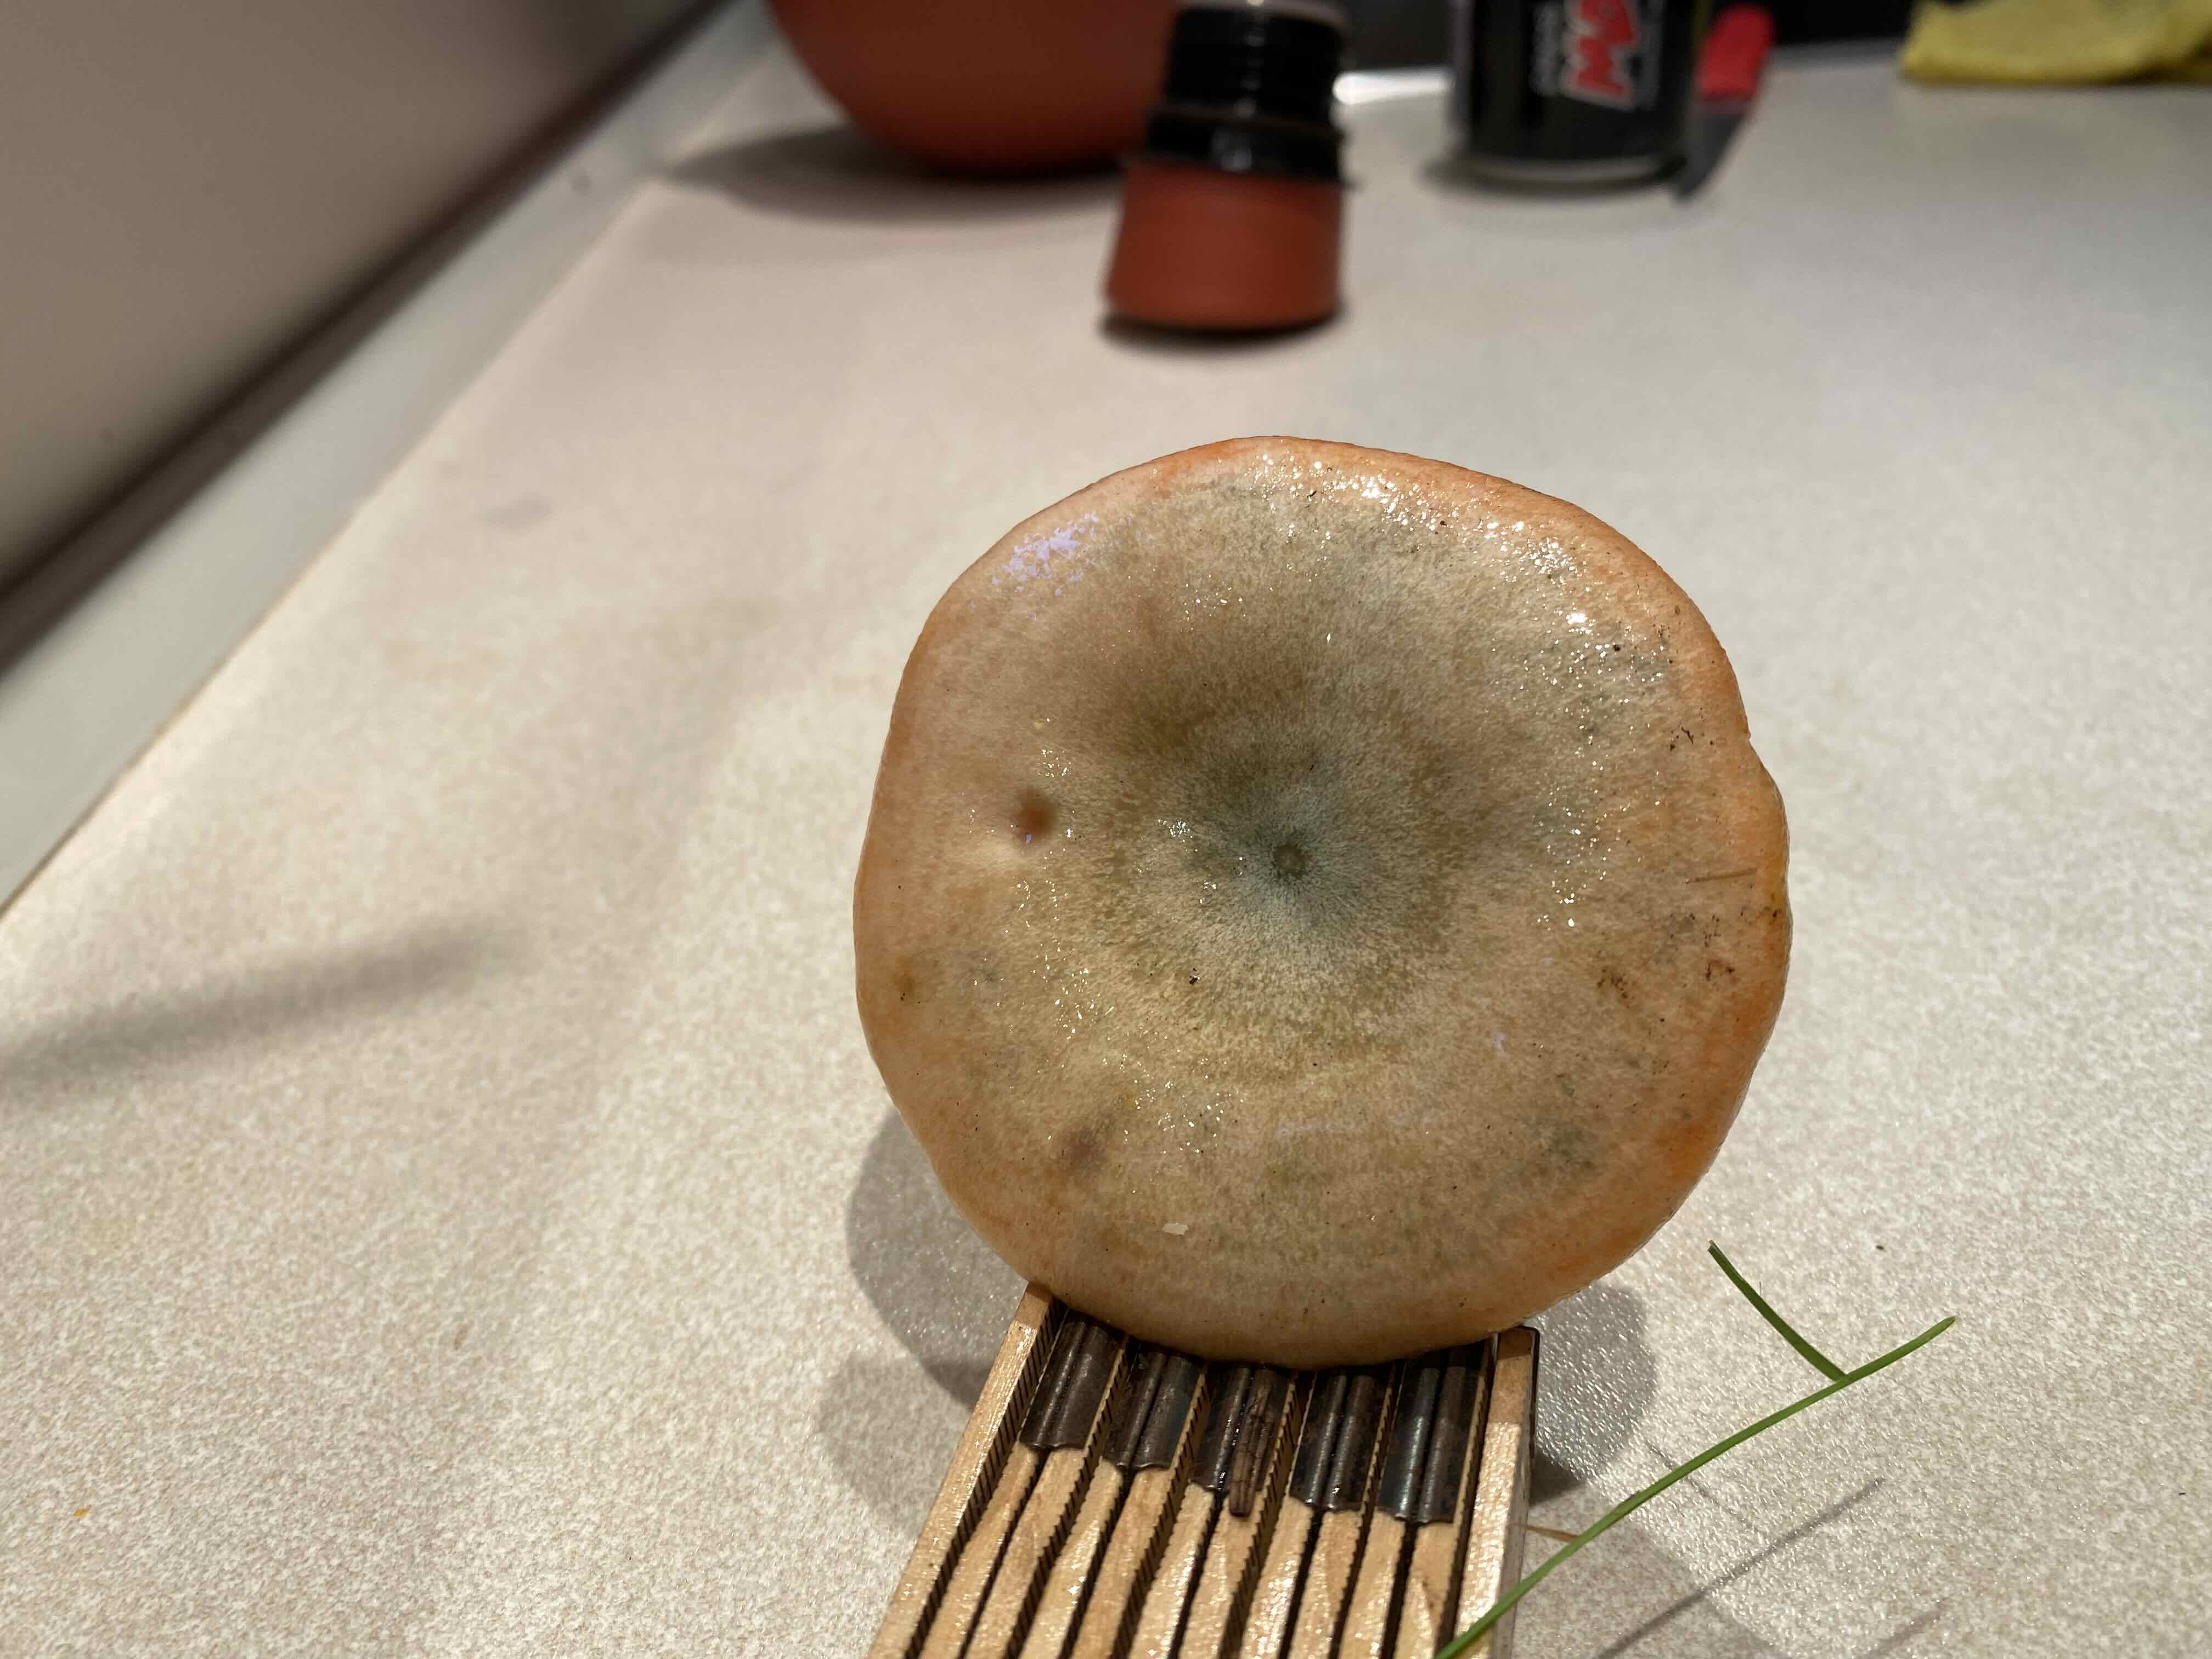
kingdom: Fungi
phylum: Basidiomycota
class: Agaricomycetes
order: Russulales
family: Russulaceae
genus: Lactarius
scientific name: Lactarius deterrimus
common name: gran-mælkehat
